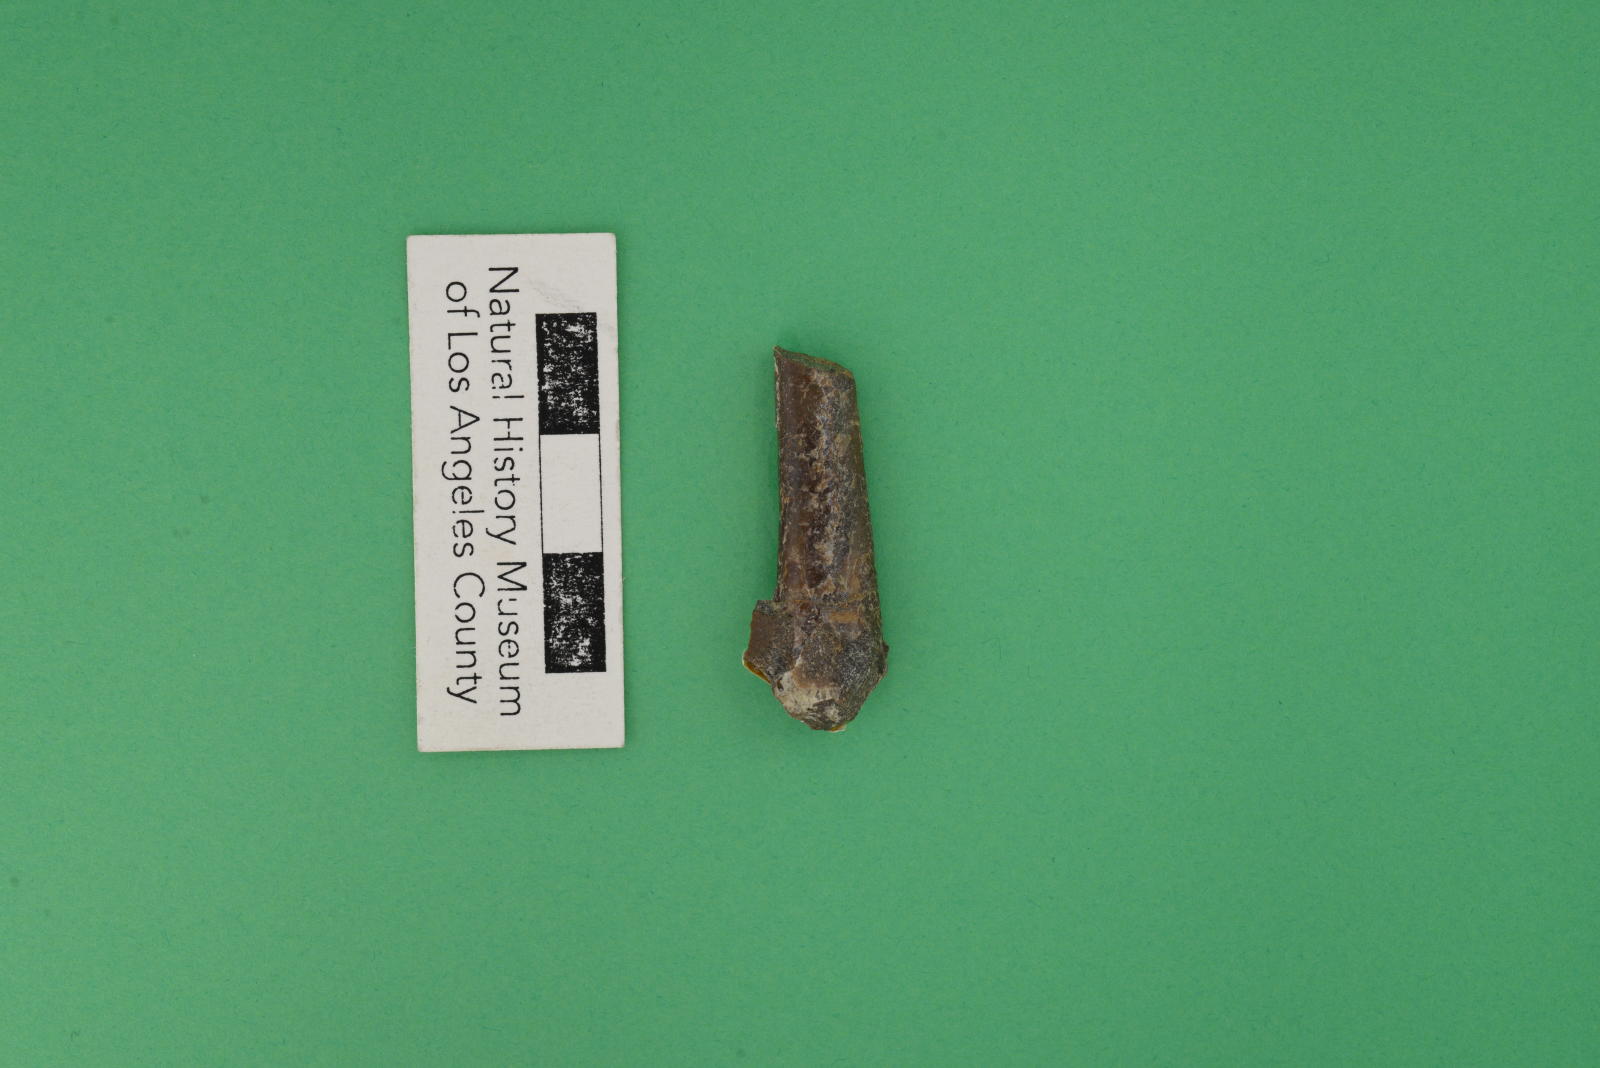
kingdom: Animalia
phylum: Mollusca
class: Cephalopoda
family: Baculitidae
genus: Baculites
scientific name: Baculites schencki
